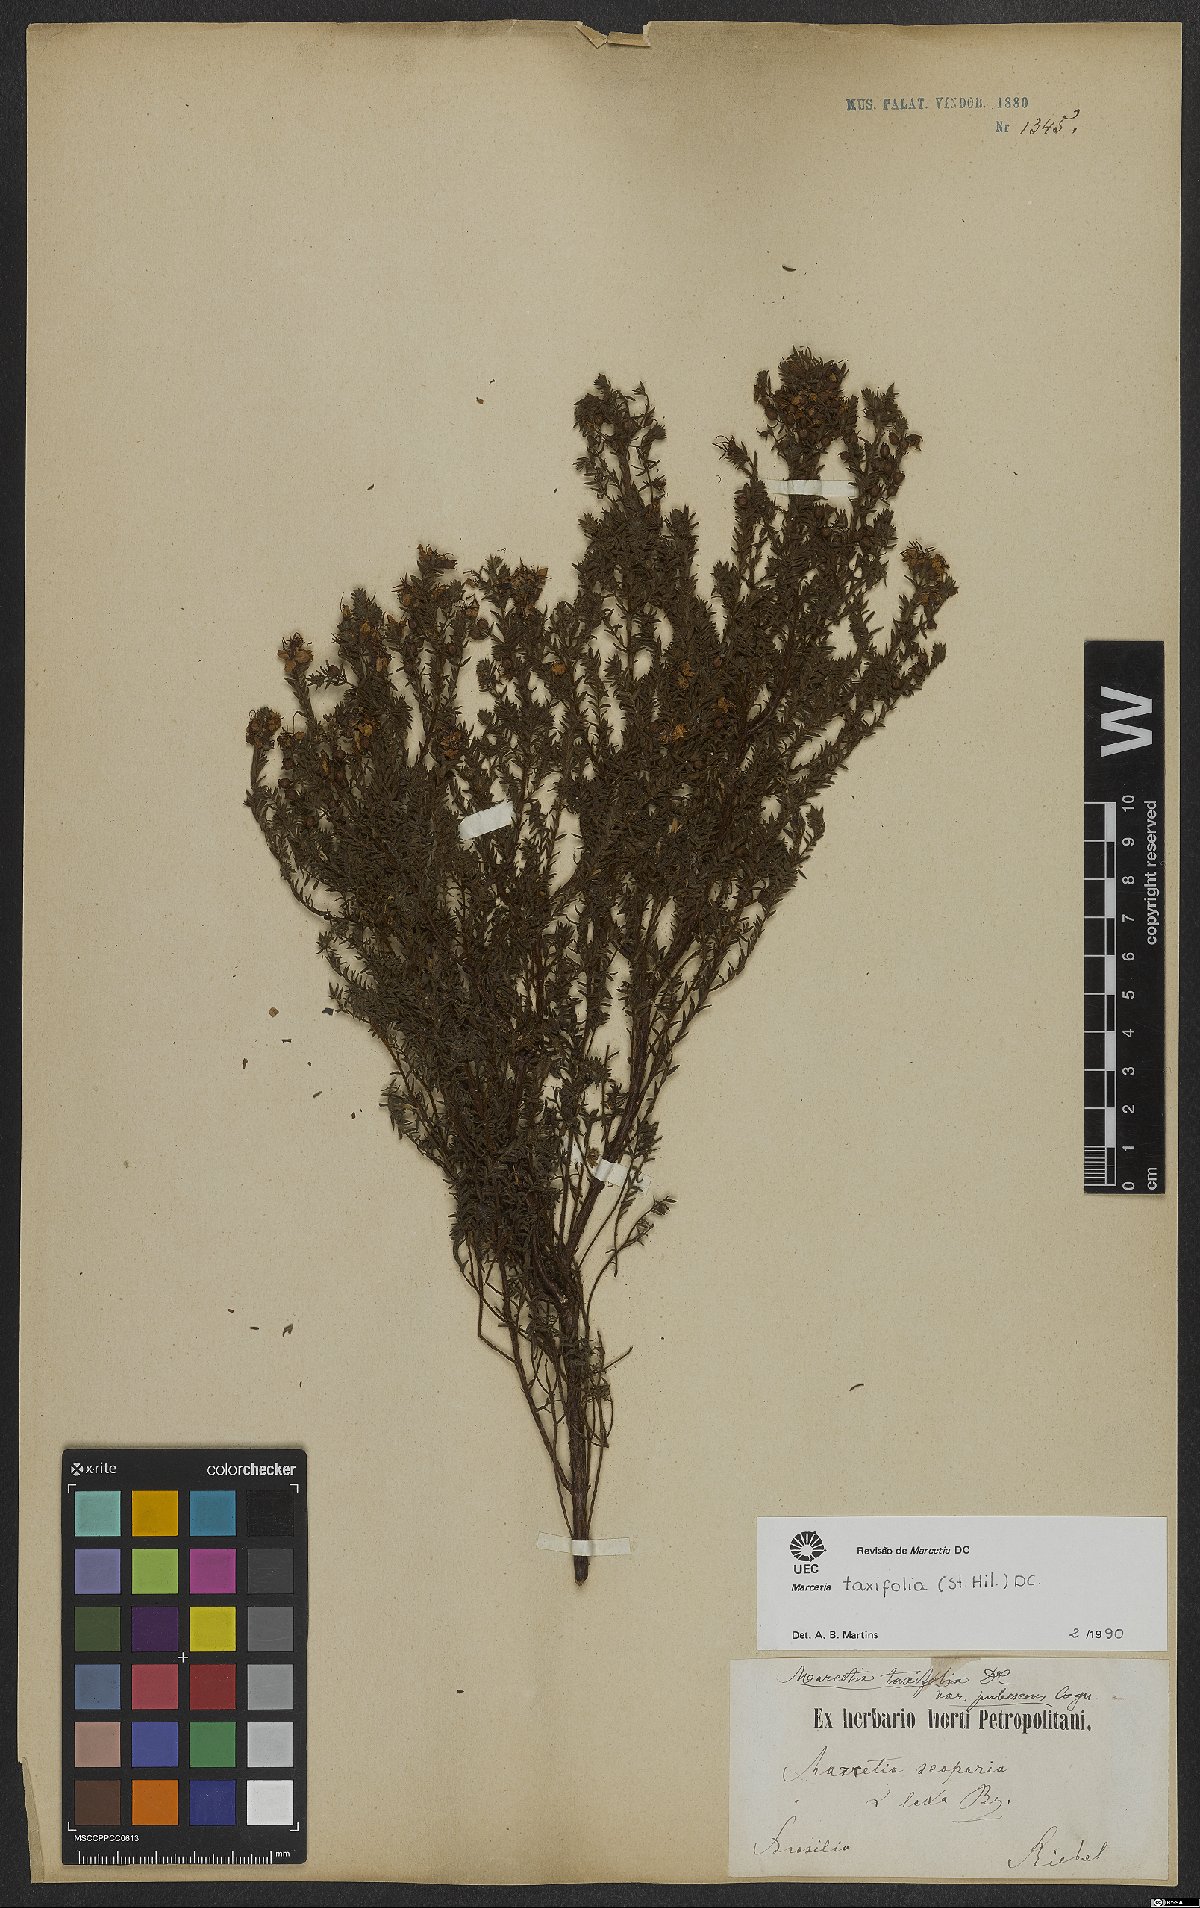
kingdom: Plantae
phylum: Tracheophyta
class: Magnoliopsida
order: Myrtales
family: Melastomataceae
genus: Marcetia
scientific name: Marcetia taxifolia
